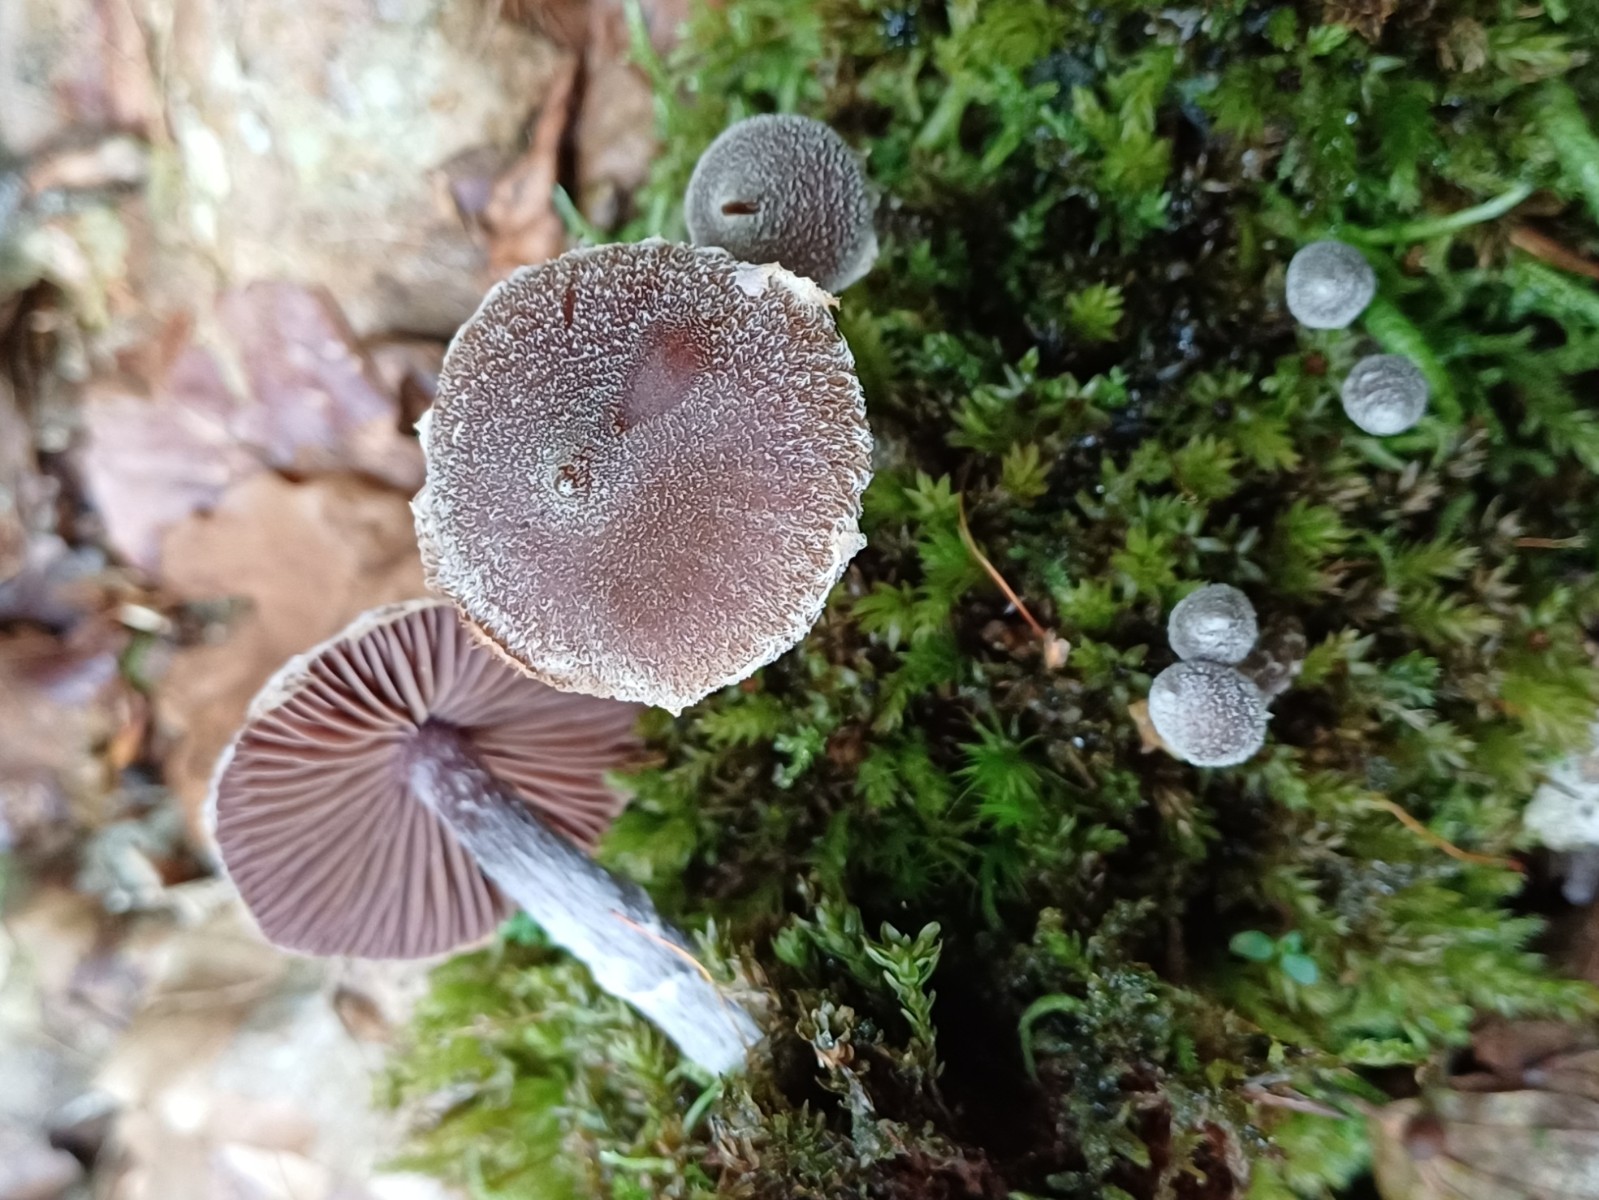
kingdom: Fungi
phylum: Basidiomycota
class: Agaricomycetes
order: Agaricales
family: Cortinariaceae
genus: Cortinarius
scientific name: Cortinarius
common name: pelargonie-slørhat
